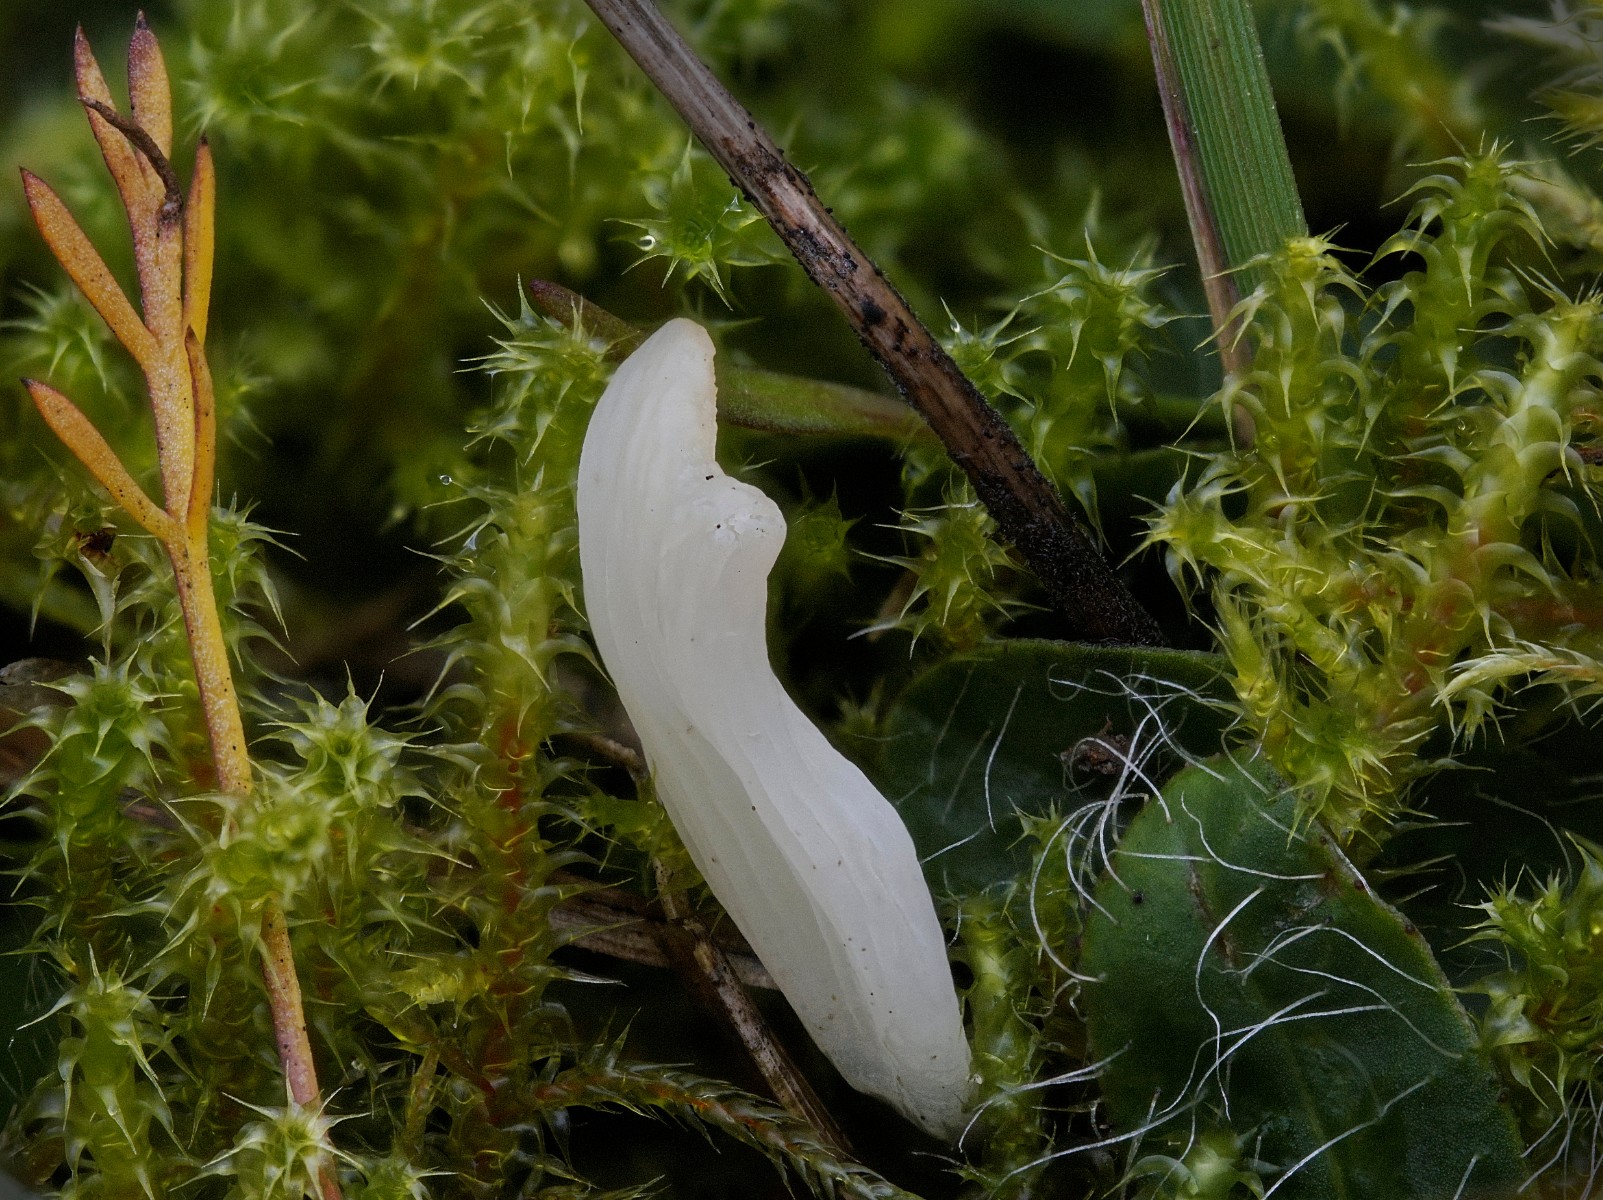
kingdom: Fungi
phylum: Basidiomycota
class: Agaricomycetes
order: Agaricales
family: Clavariaceae
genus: Clavaria
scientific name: Clavaria
